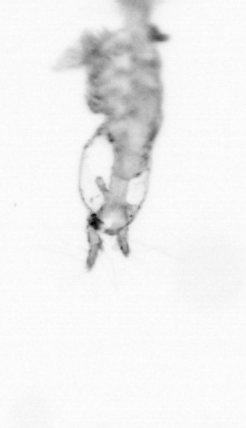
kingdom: Animalia
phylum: Arthropoda
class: Copepoda
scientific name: Copepoda
